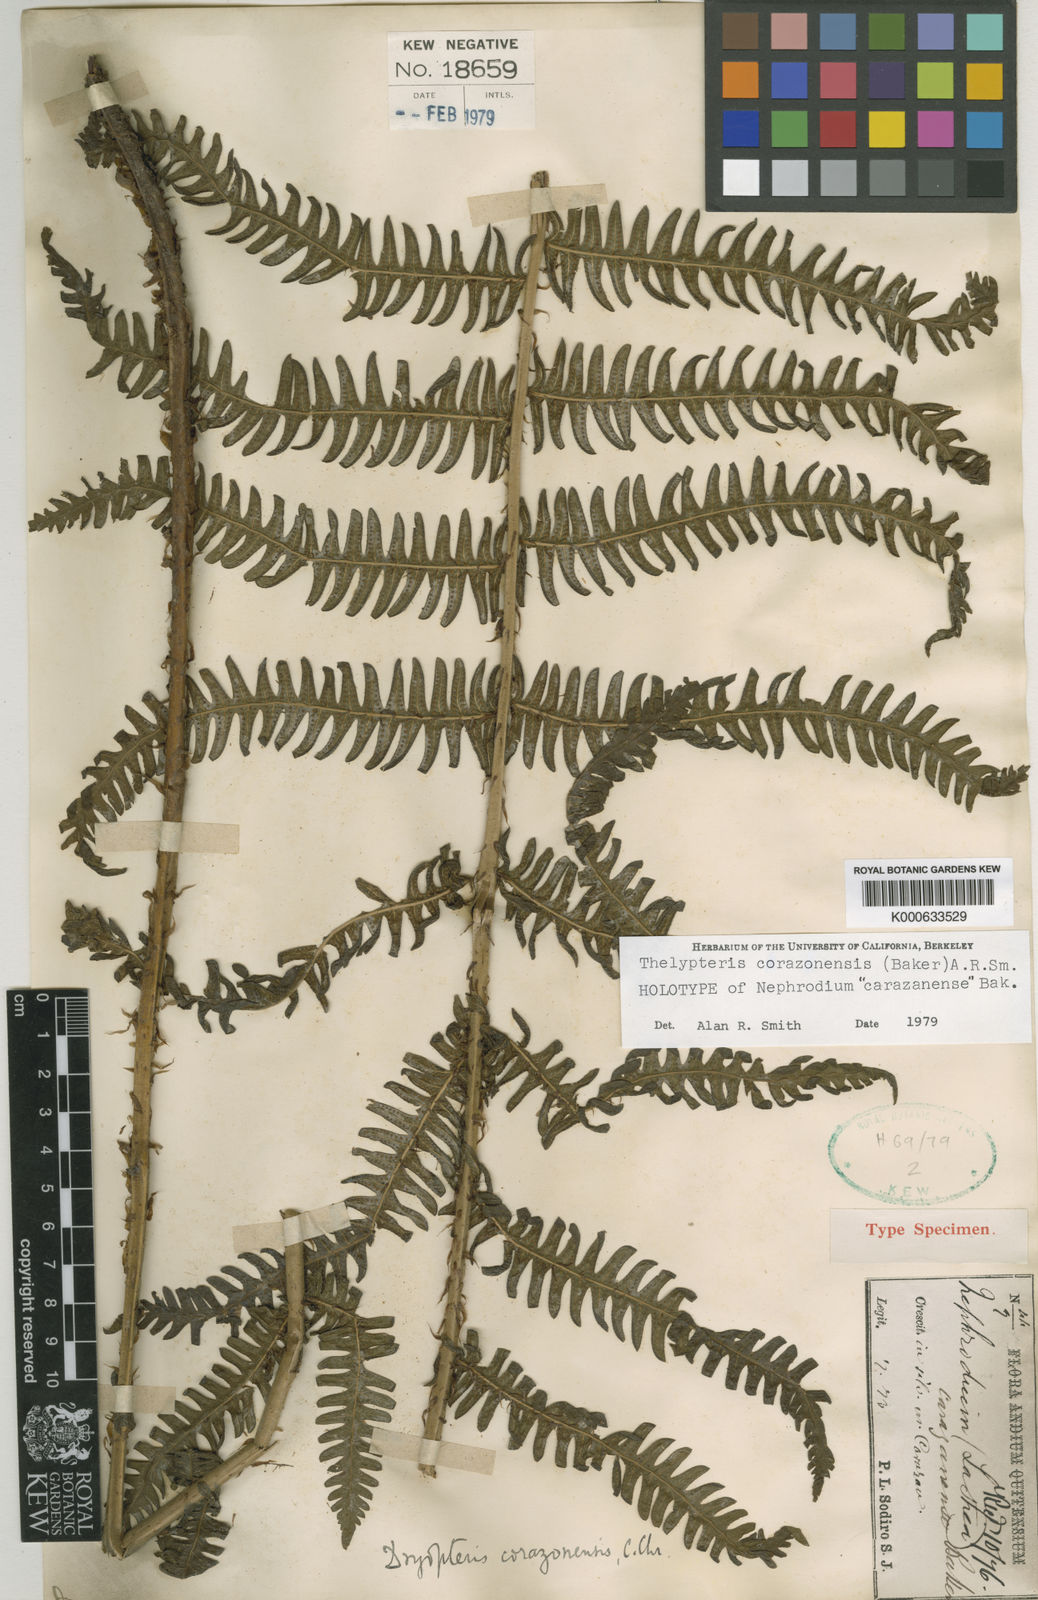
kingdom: Plantae
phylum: Tracheophyta
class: Polypodiopsida
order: Polypodiales
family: Thelypteridaceae
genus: Amauropelta
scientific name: Amauropelta corazonensis
